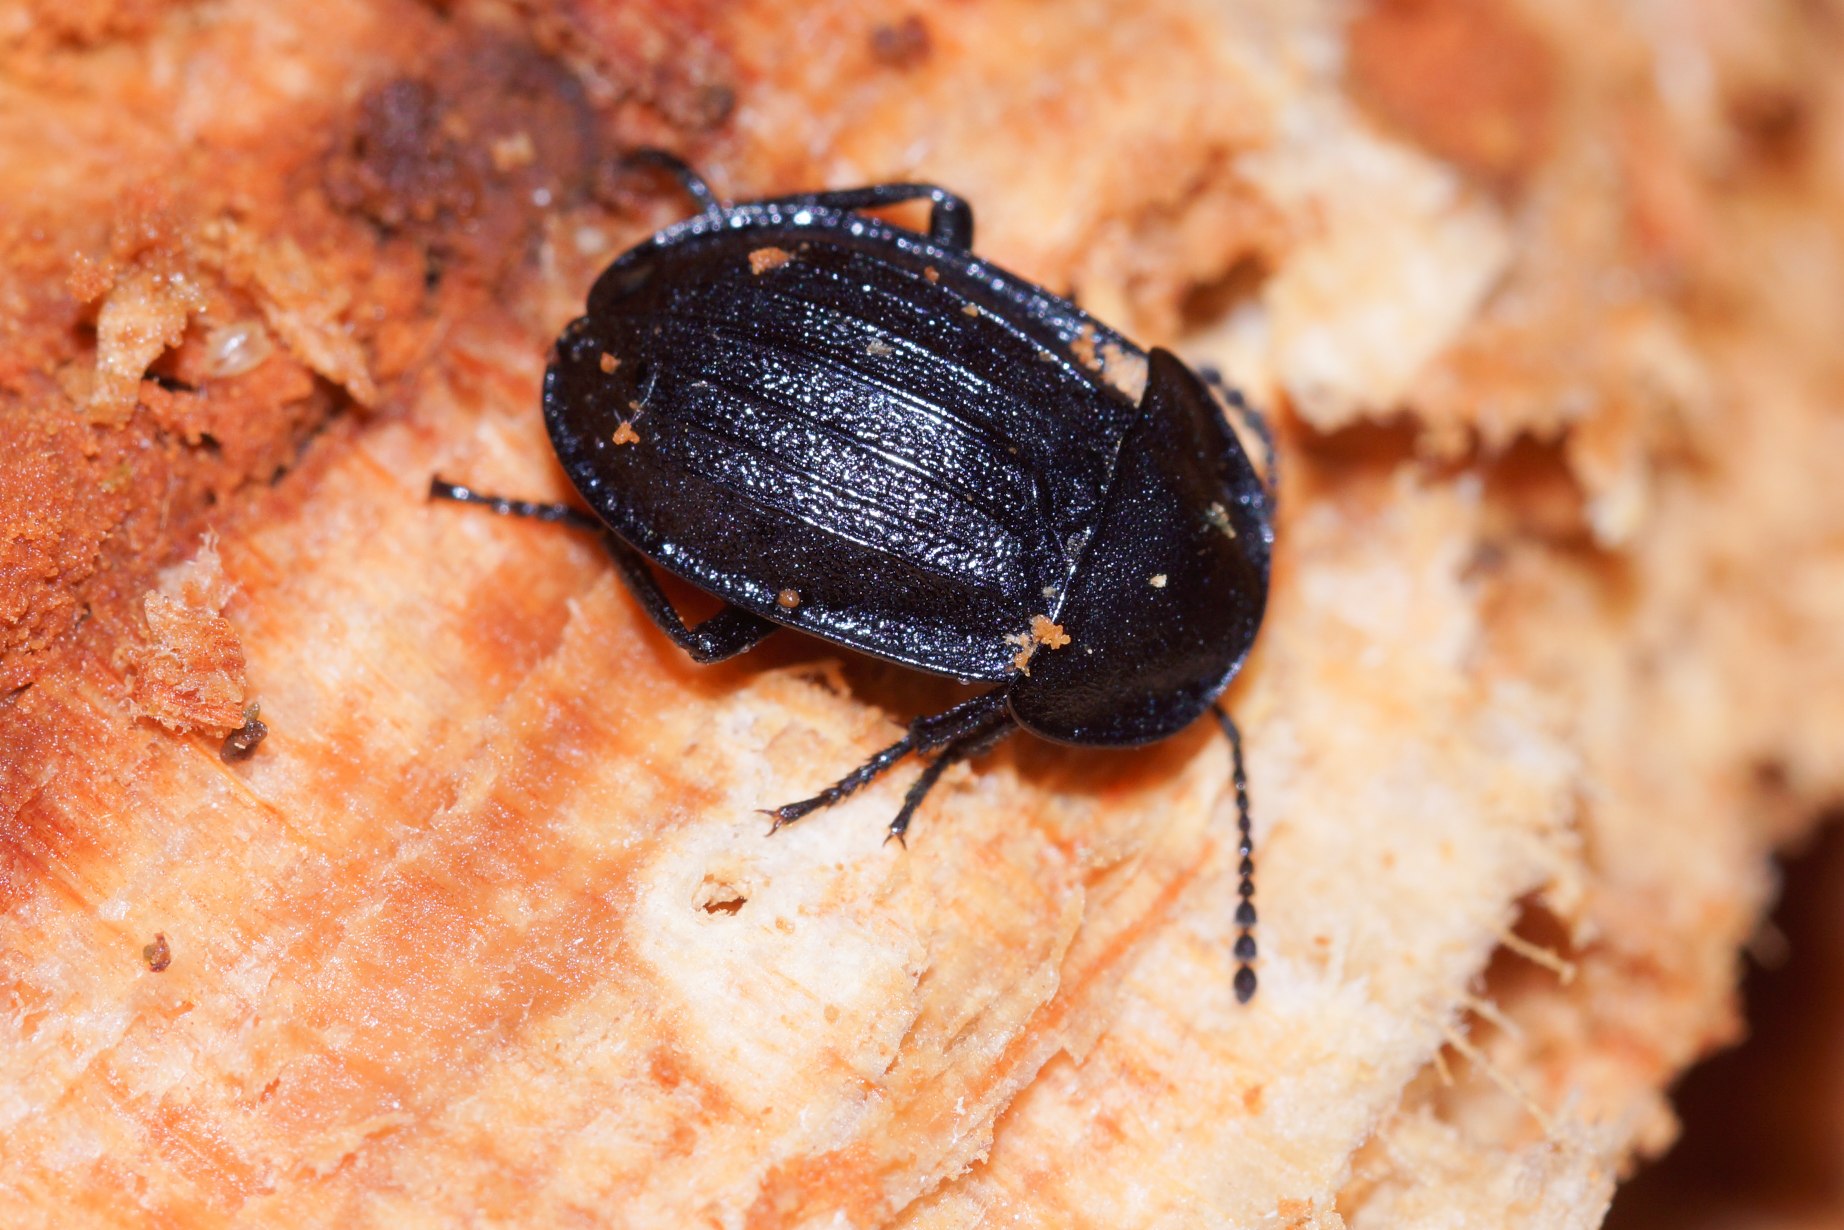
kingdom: Animalia
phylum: Arthropoda
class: Insecta
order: Coleoptera
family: Staphylinidae
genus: Silpha
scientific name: Silpha atrata
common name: Snegleådselbille
